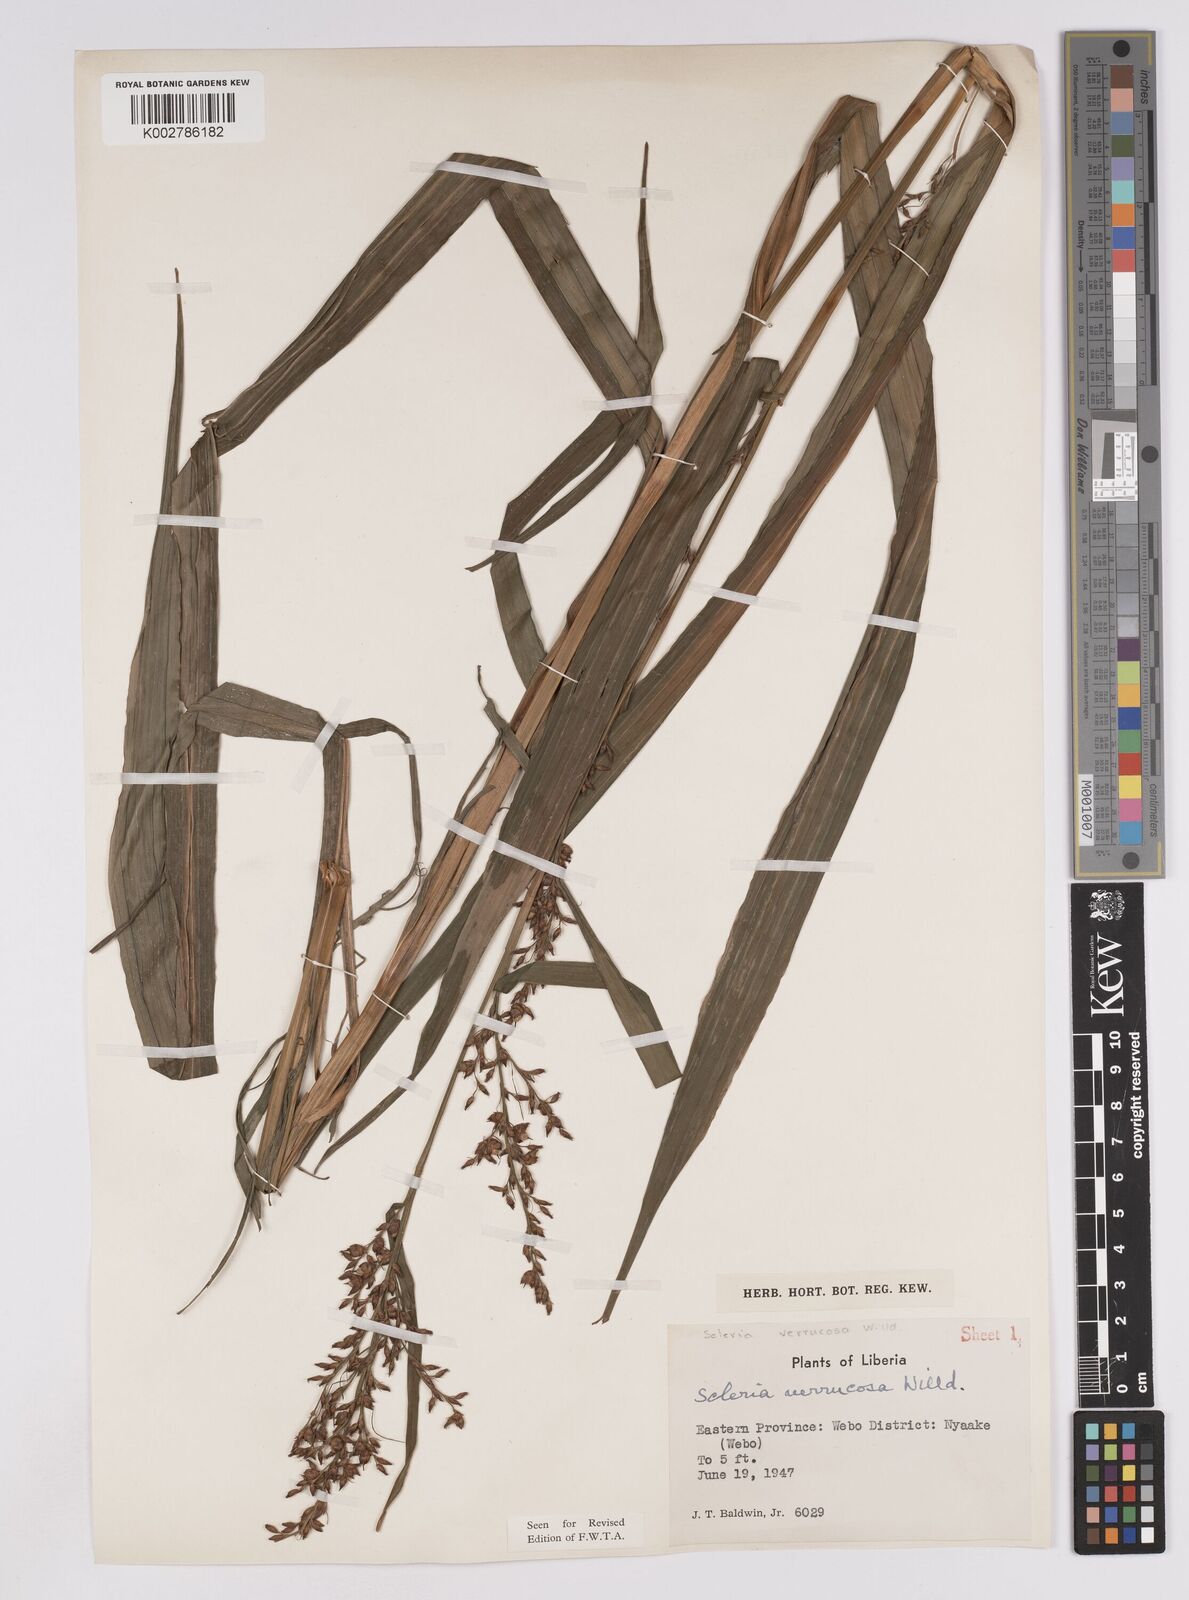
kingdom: Plantae
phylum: Tracheophyta
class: Liliopsida
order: Poales
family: Cyperaceae
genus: Scleria
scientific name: Scleria verrucosa
